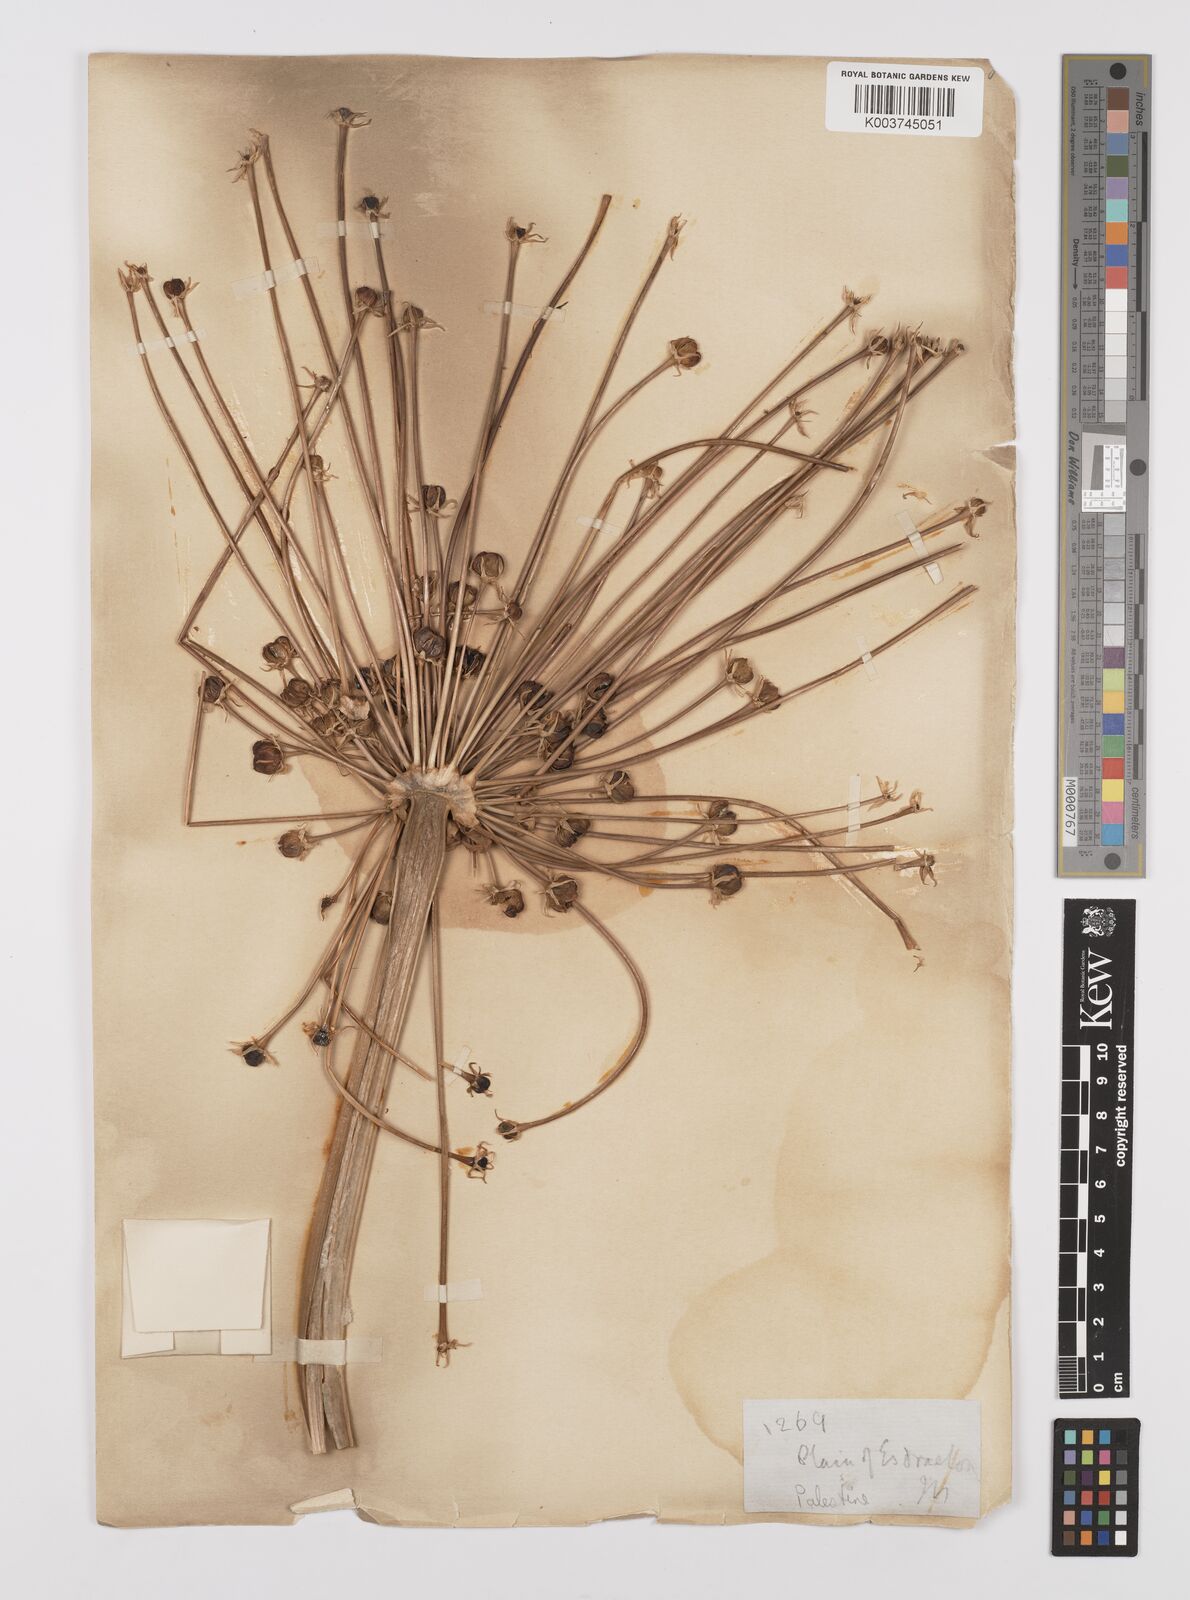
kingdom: Plantae
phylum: Tracheophyta
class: Liliopsida
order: Asparagales
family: Amaryllidaceae
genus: Allium
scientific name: Allium schubertii
